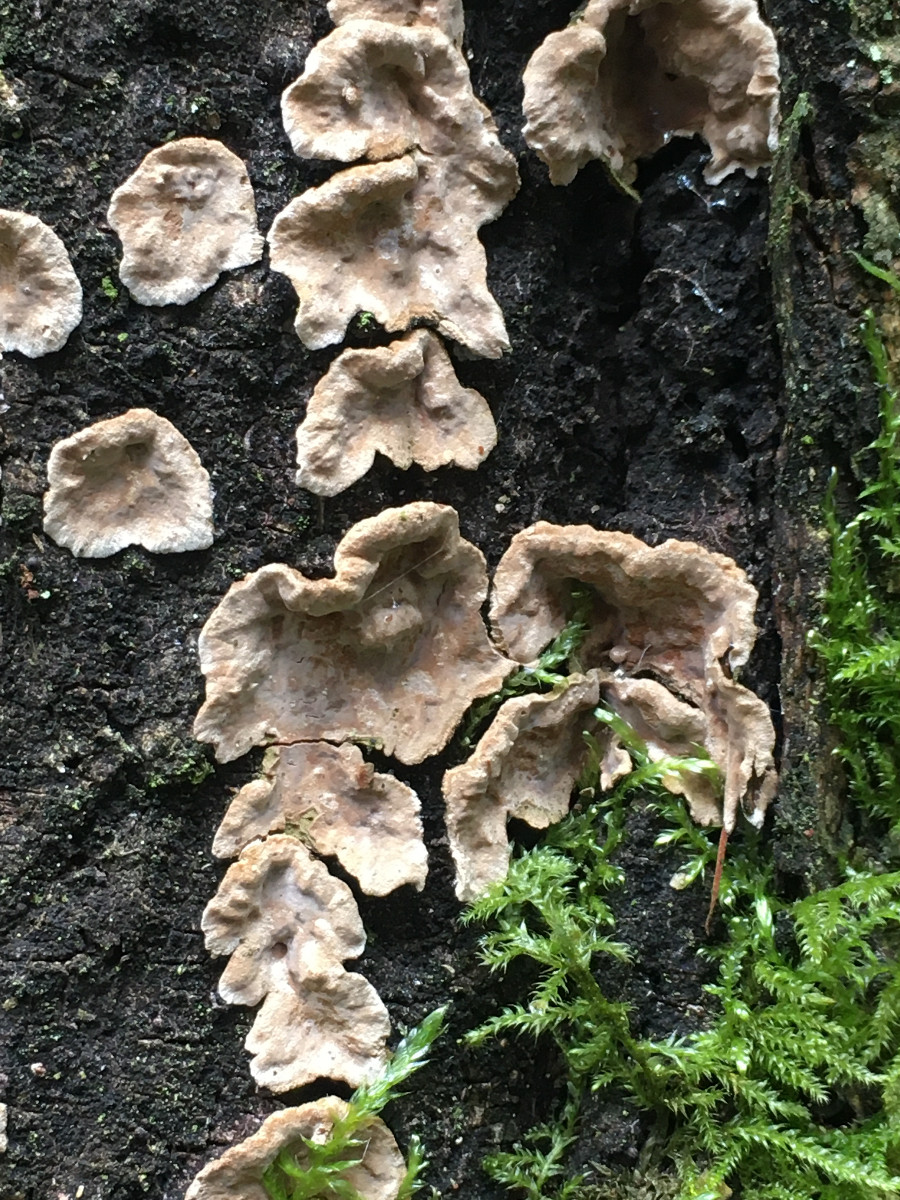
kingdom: Fungi
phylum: Basidiomycota
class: Agaricomycetes
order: Russulales
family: Stereaceae
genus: Stereum
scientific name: Stereum sanguinolentum
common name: blødende lædersvamp
